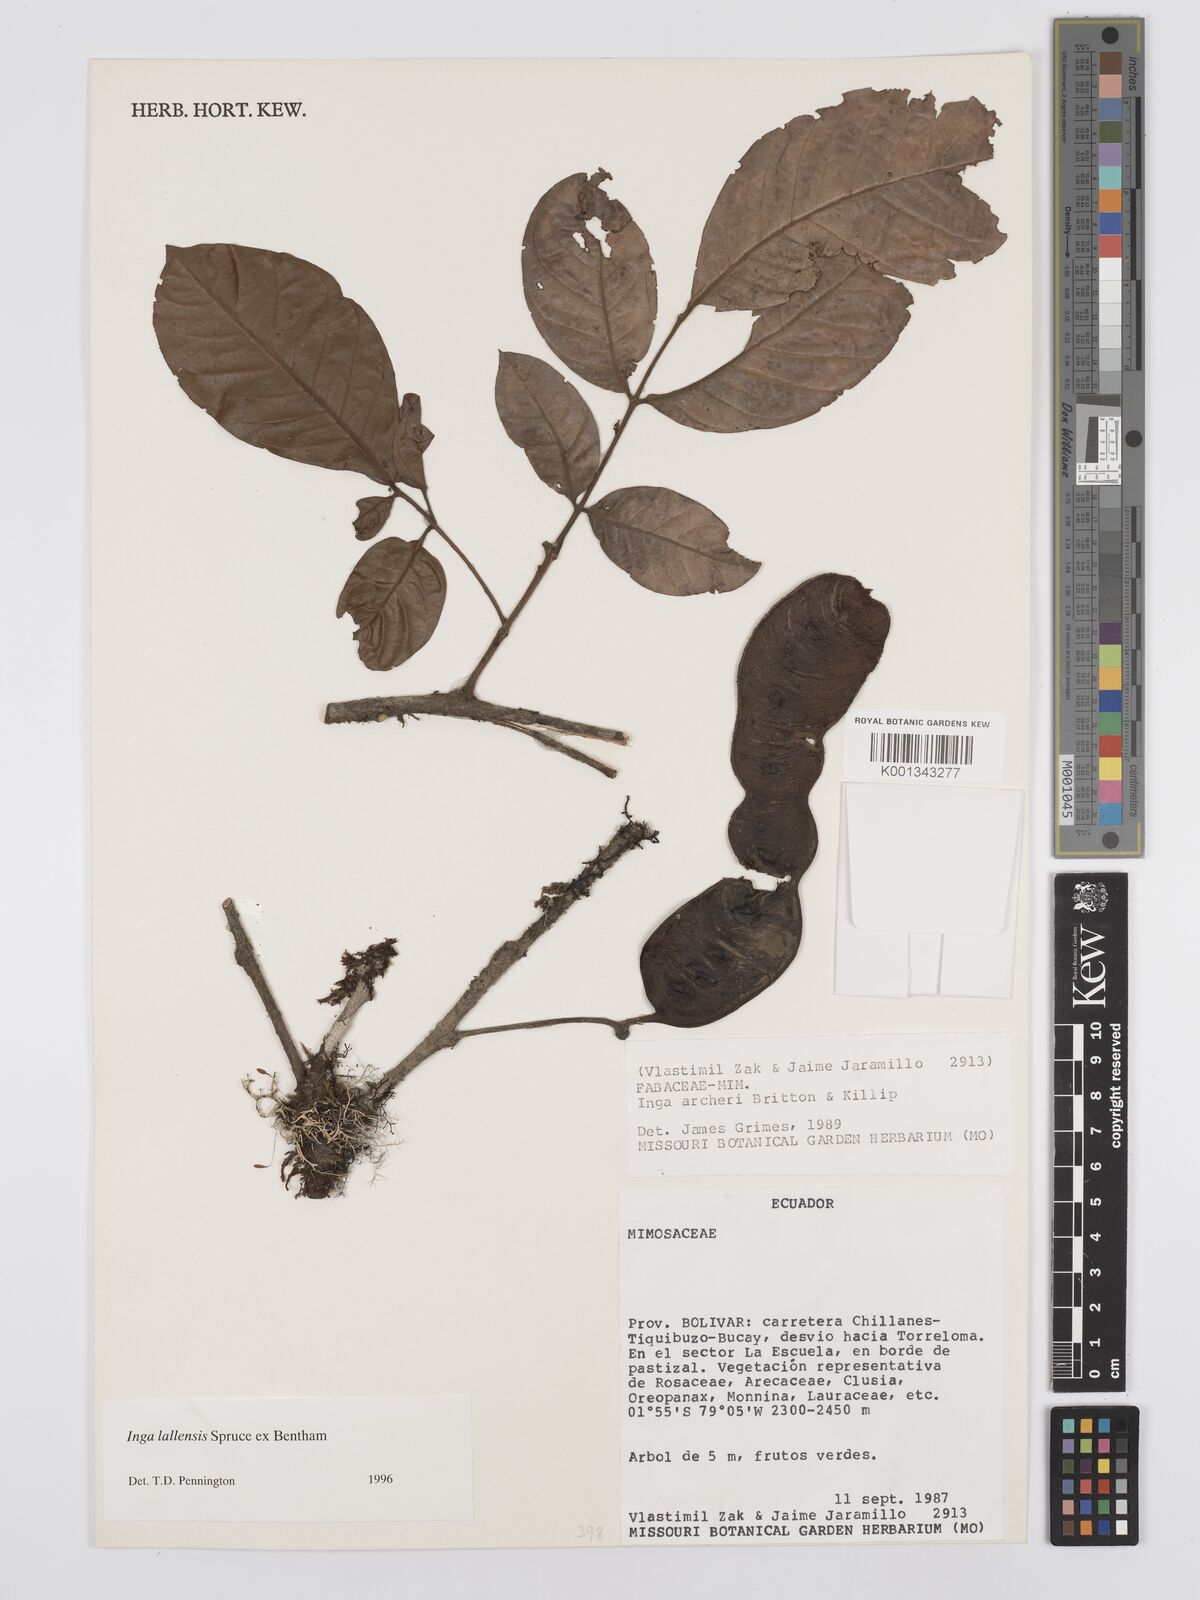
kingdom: Plantae
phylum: Tracheophyta
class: Magnoliopsida
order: Fabales
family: Fabaceae
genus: Inga
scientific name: Inga lallensis
